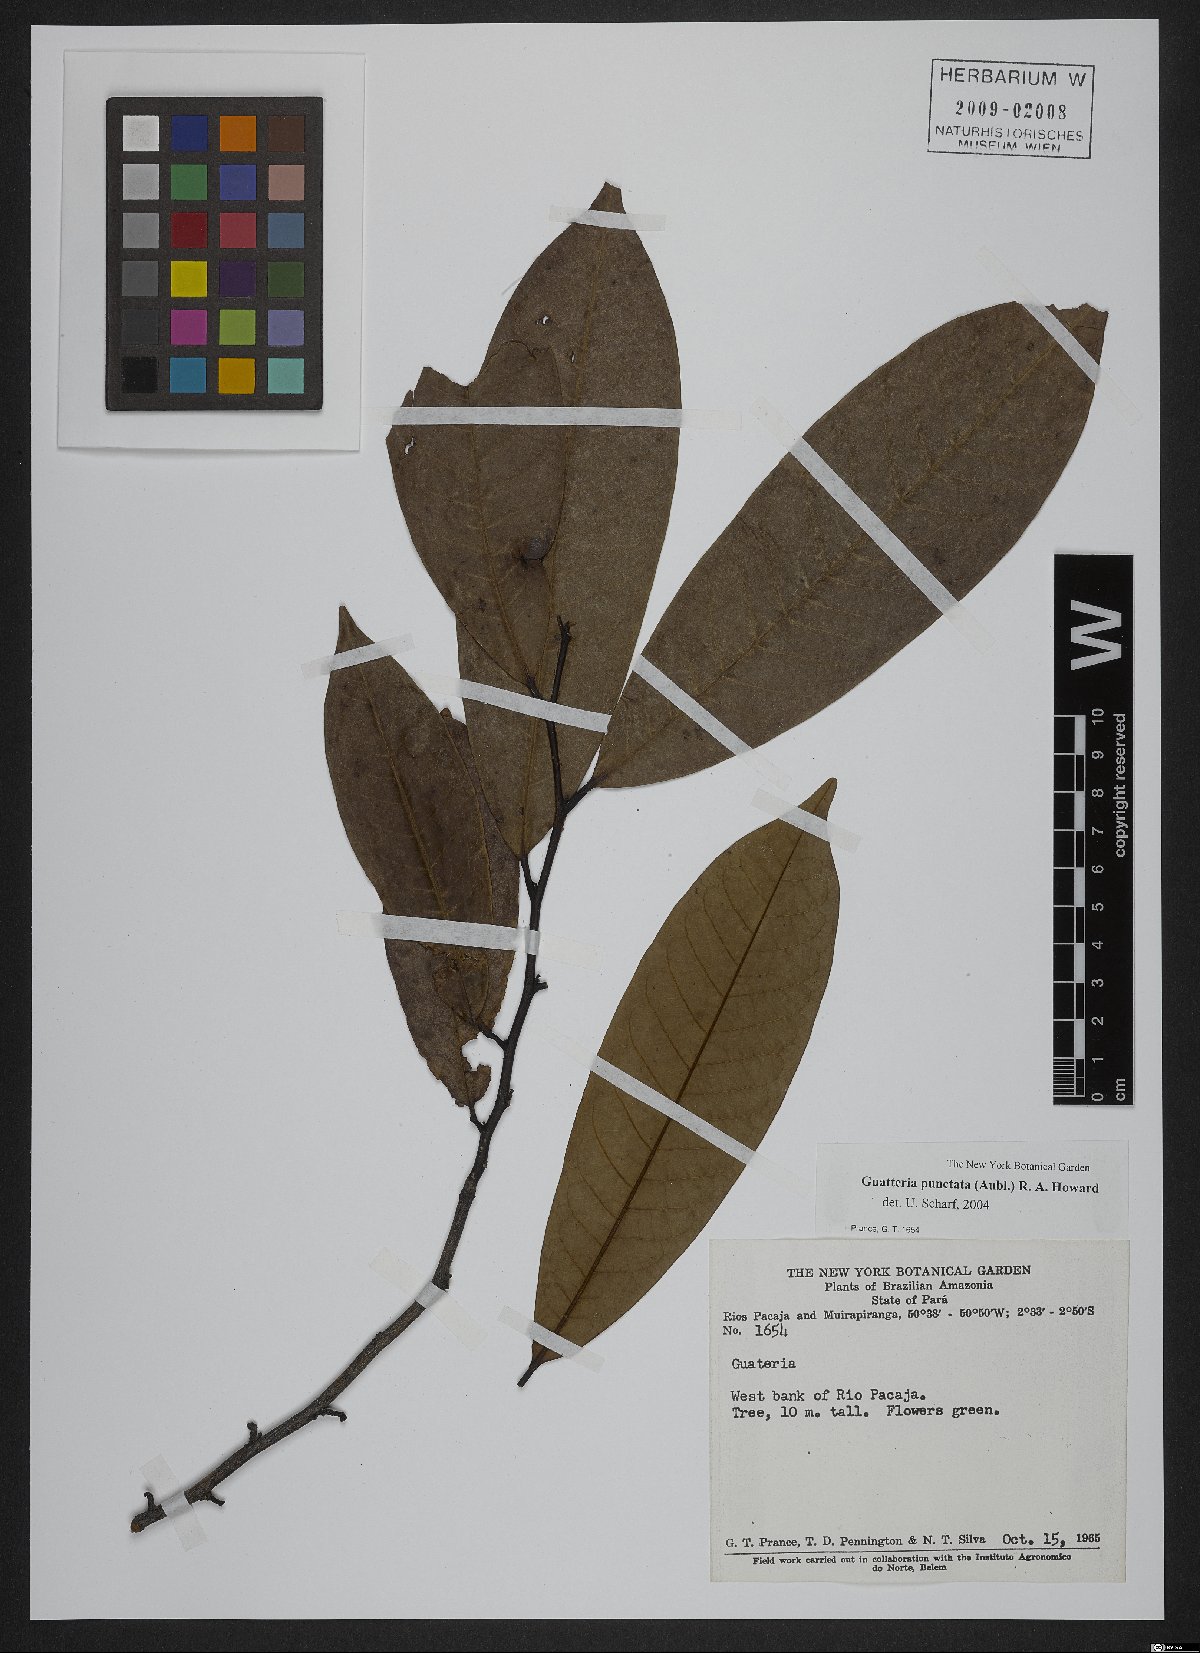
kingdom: Plantae
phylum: Tracheophyta
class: Magnoliopsida
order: Magnoliales
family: Annonaceae
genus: Guatteria
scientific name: Guatteria punctata
